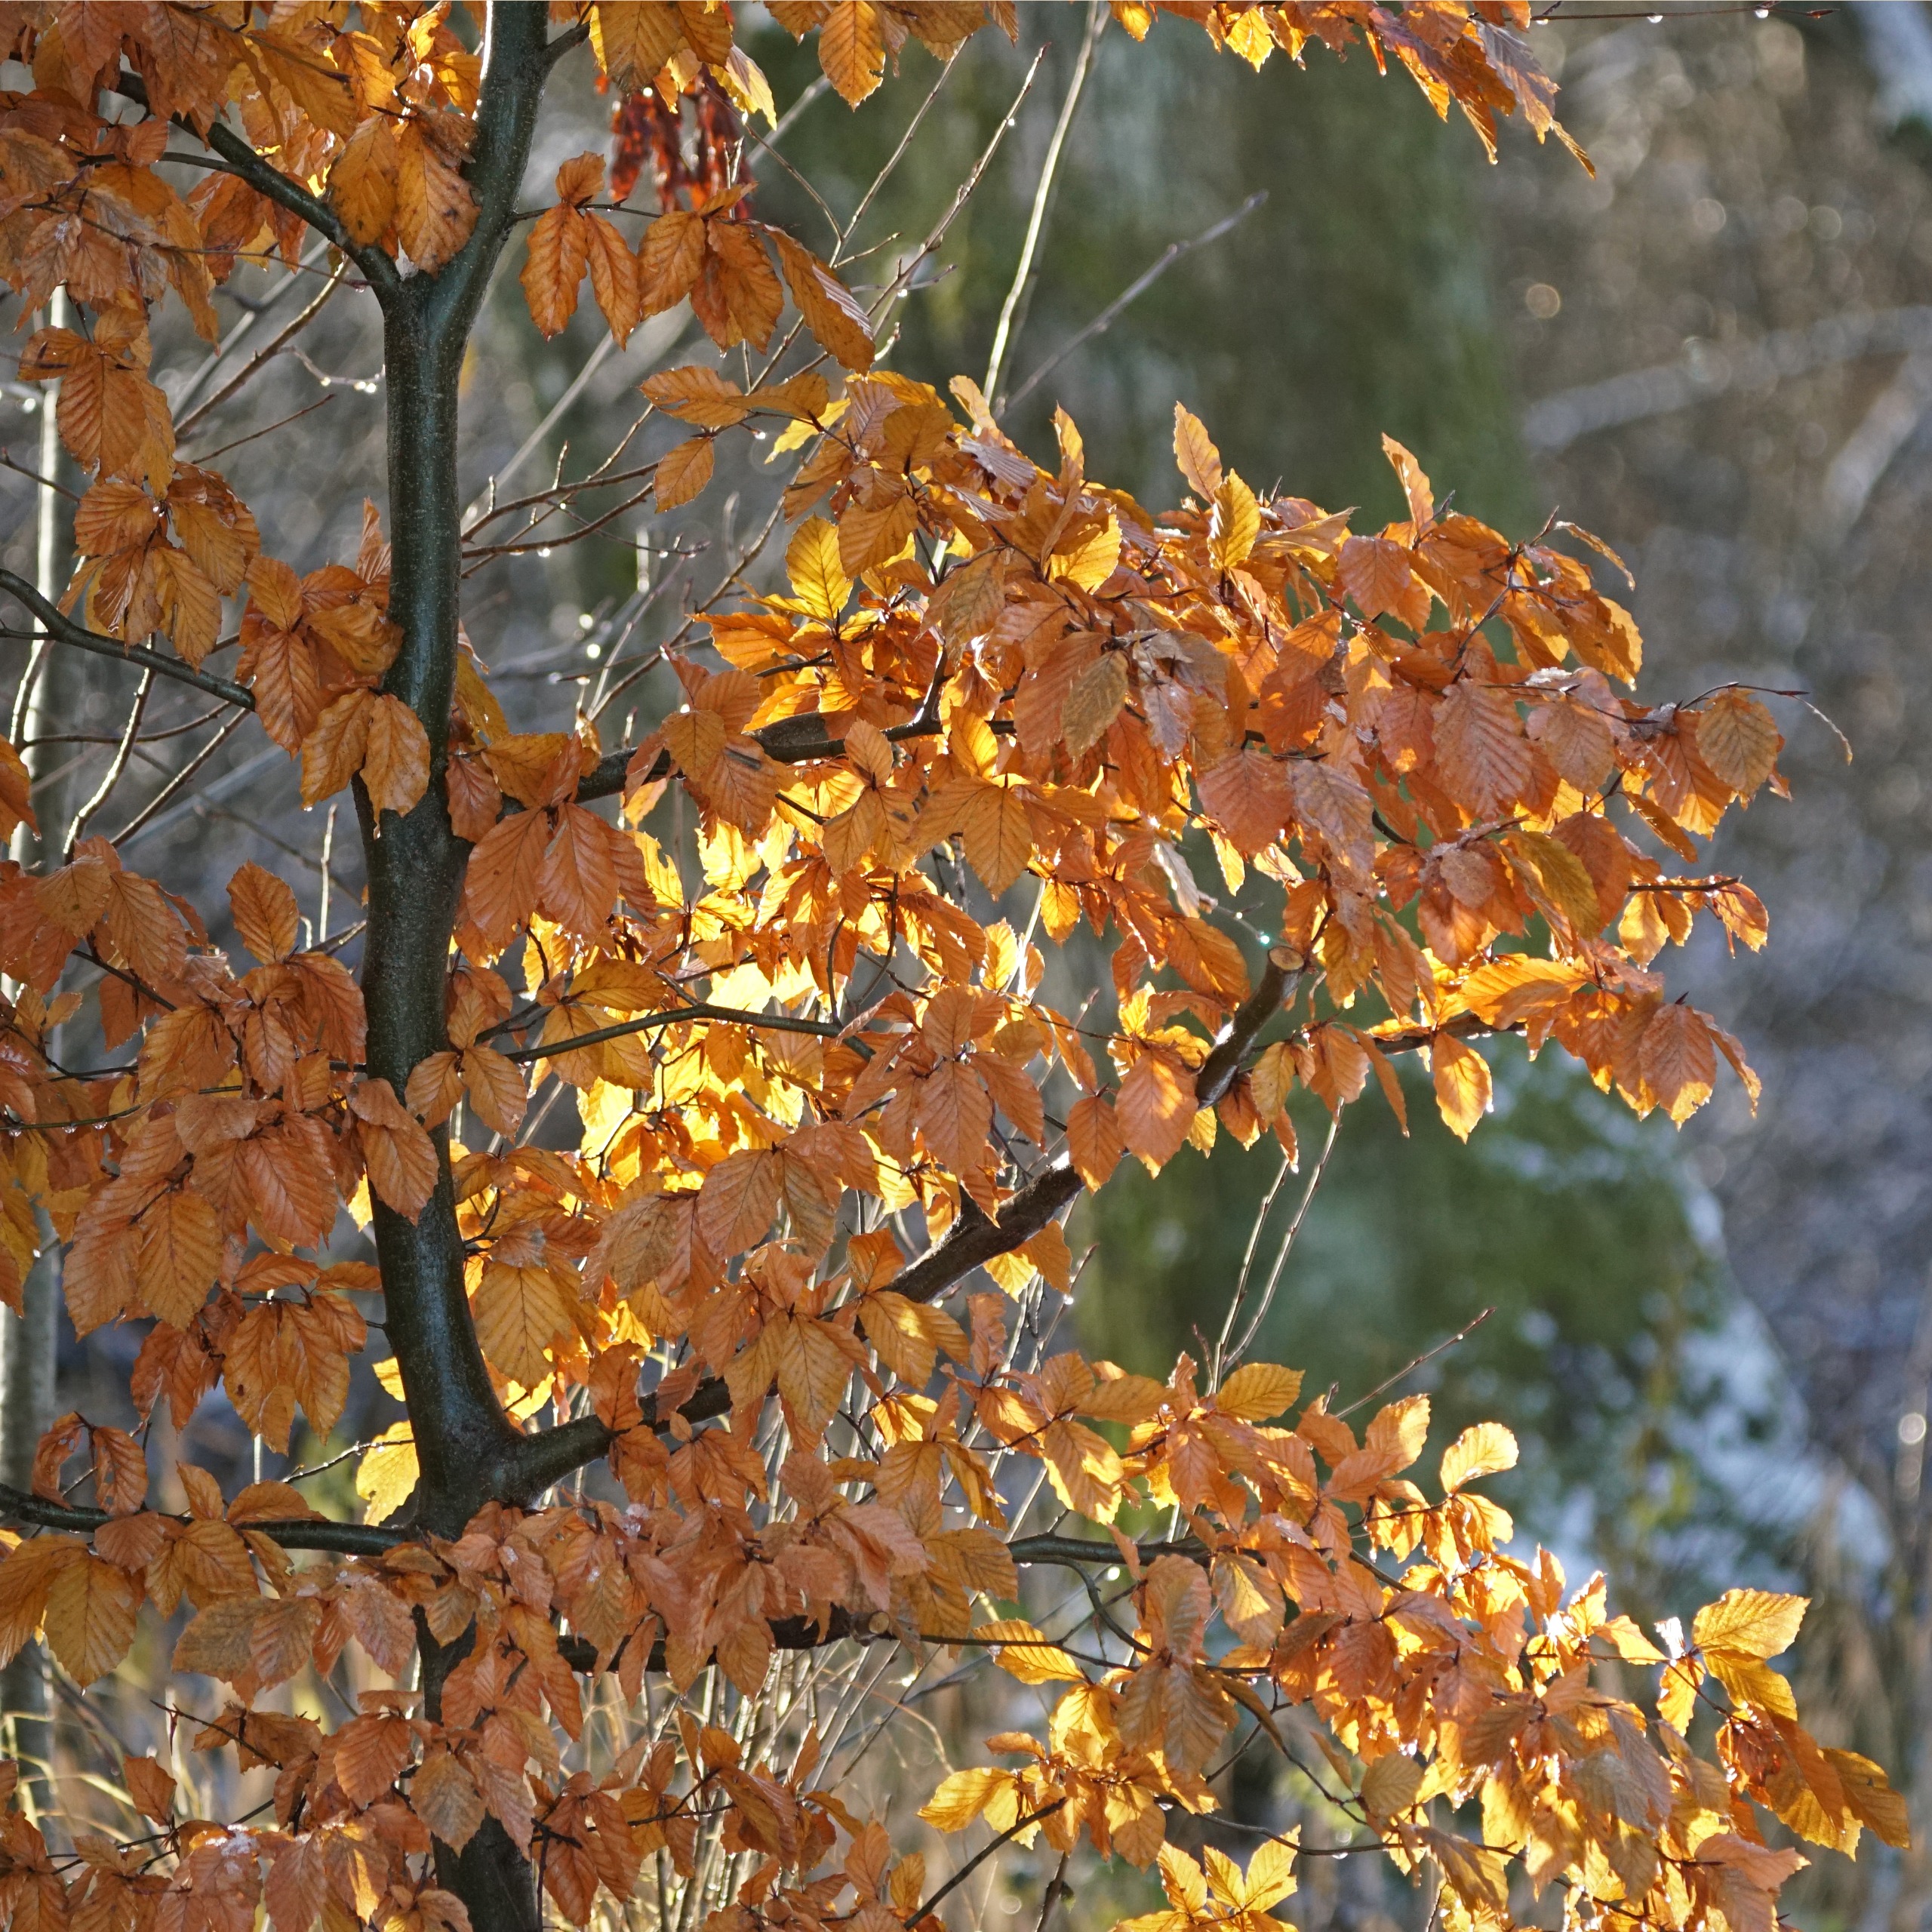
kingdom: Plantae
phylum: Tracheophyta
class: Magnoliopsida
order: Fagales
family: Fagaceae
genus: Fagus
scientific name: Fagus sylvatica
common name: Bøg
